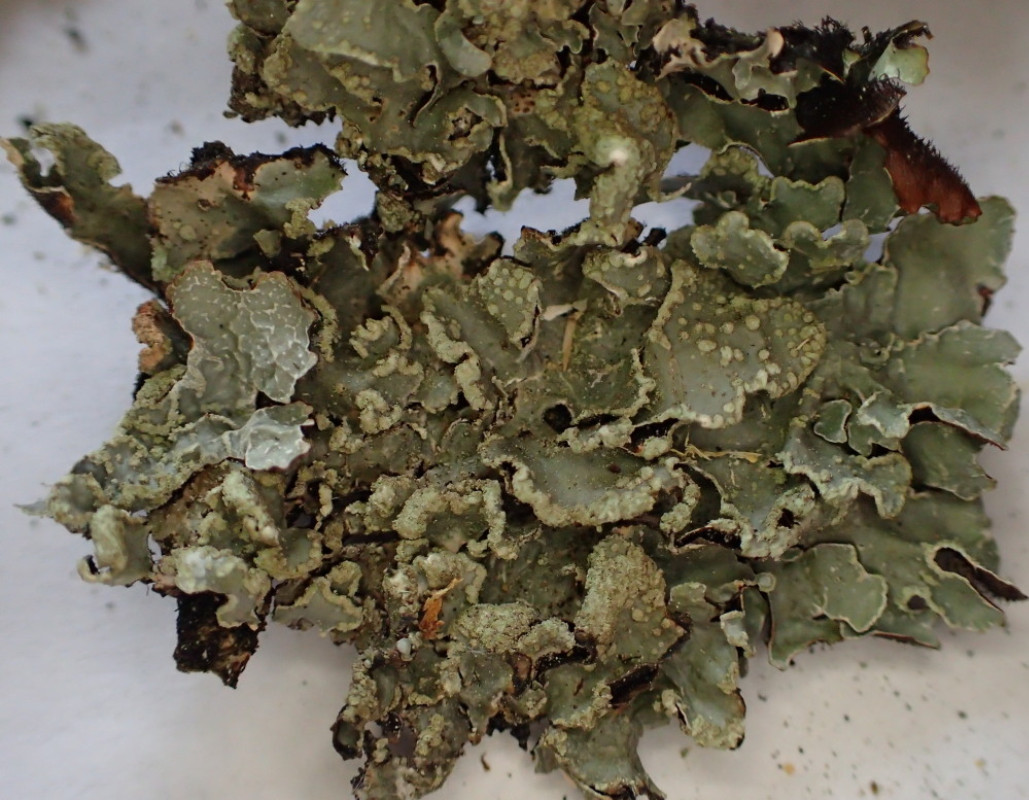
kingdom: Fungi
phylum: Ascomycota
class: Lecanoromycetes
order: Lecanorales
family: Parmeliaceae
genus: Parmelia
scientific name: Parmelia sulcata
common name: rynket skållav
